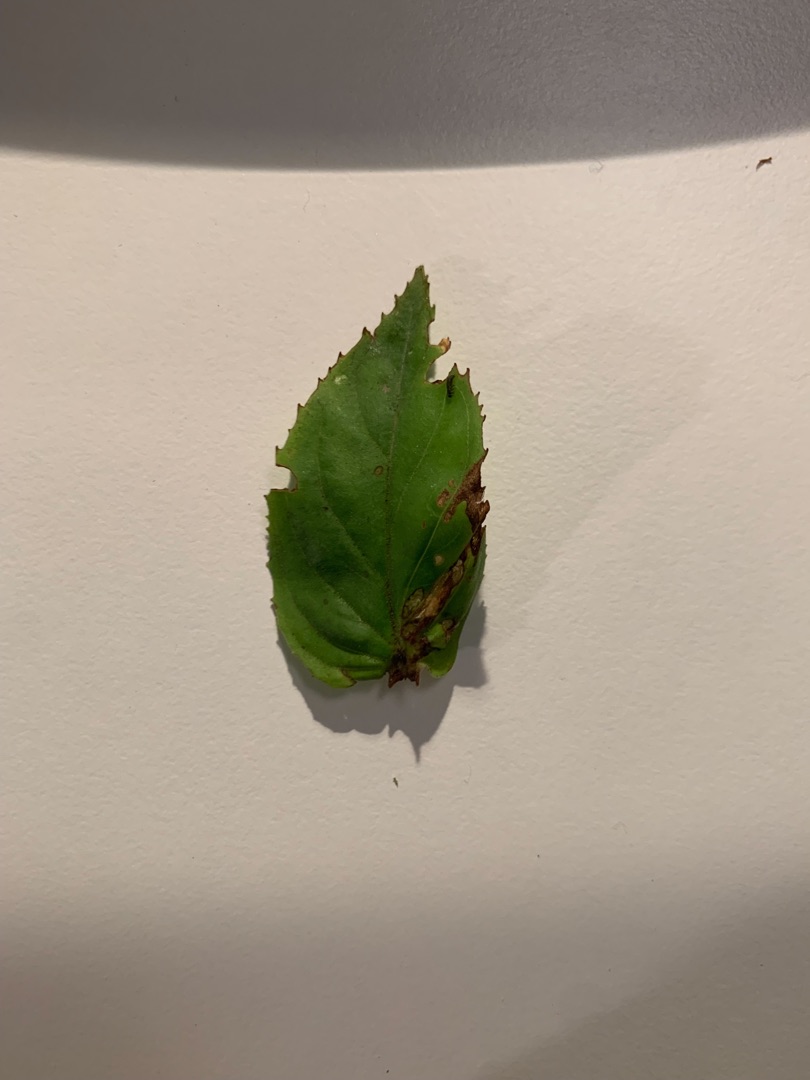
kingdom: Plantae
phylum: Tracheophyta
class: Magnoliopsida
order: Myrtales
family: Onagraceae
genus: Epilobium
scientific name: Epilobium montanum
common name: Glat dueurt
